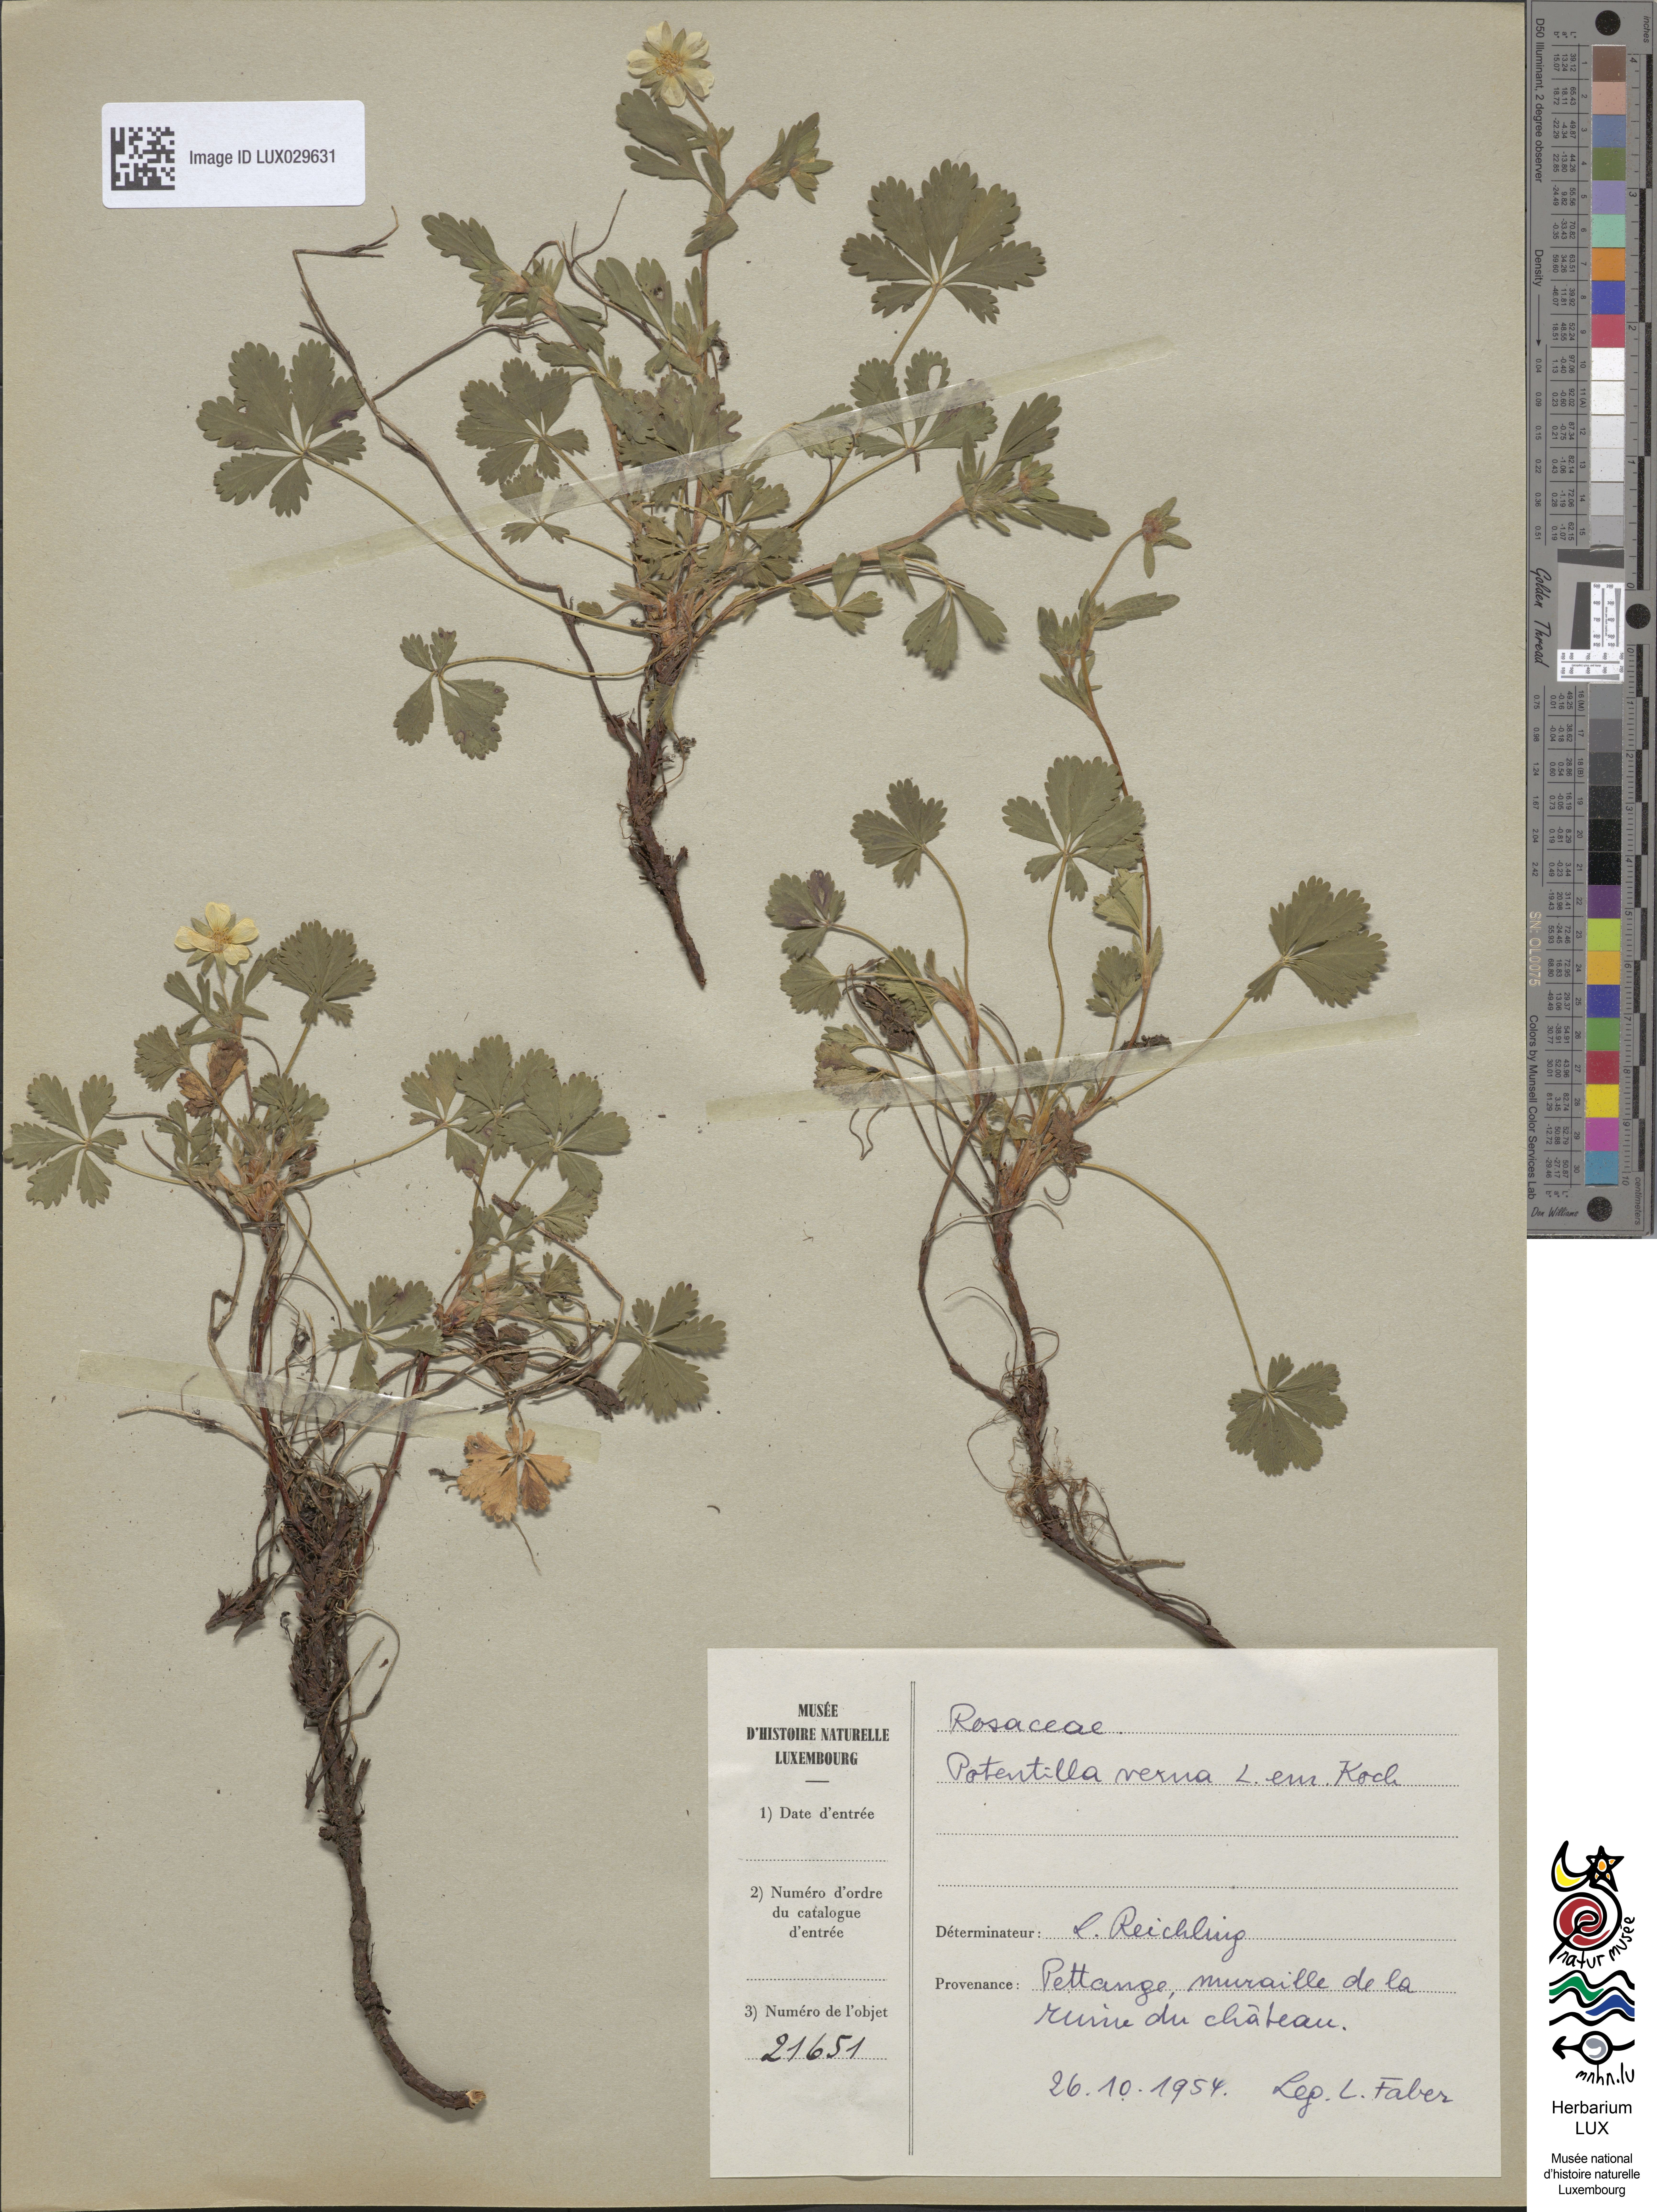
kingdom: Plantae
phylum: Tracheophyta
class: Magnoliopsida
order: Rosales
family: Rosaceae
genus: Potentilla
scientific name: Potentilla verna
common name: Spring cinquefoil
